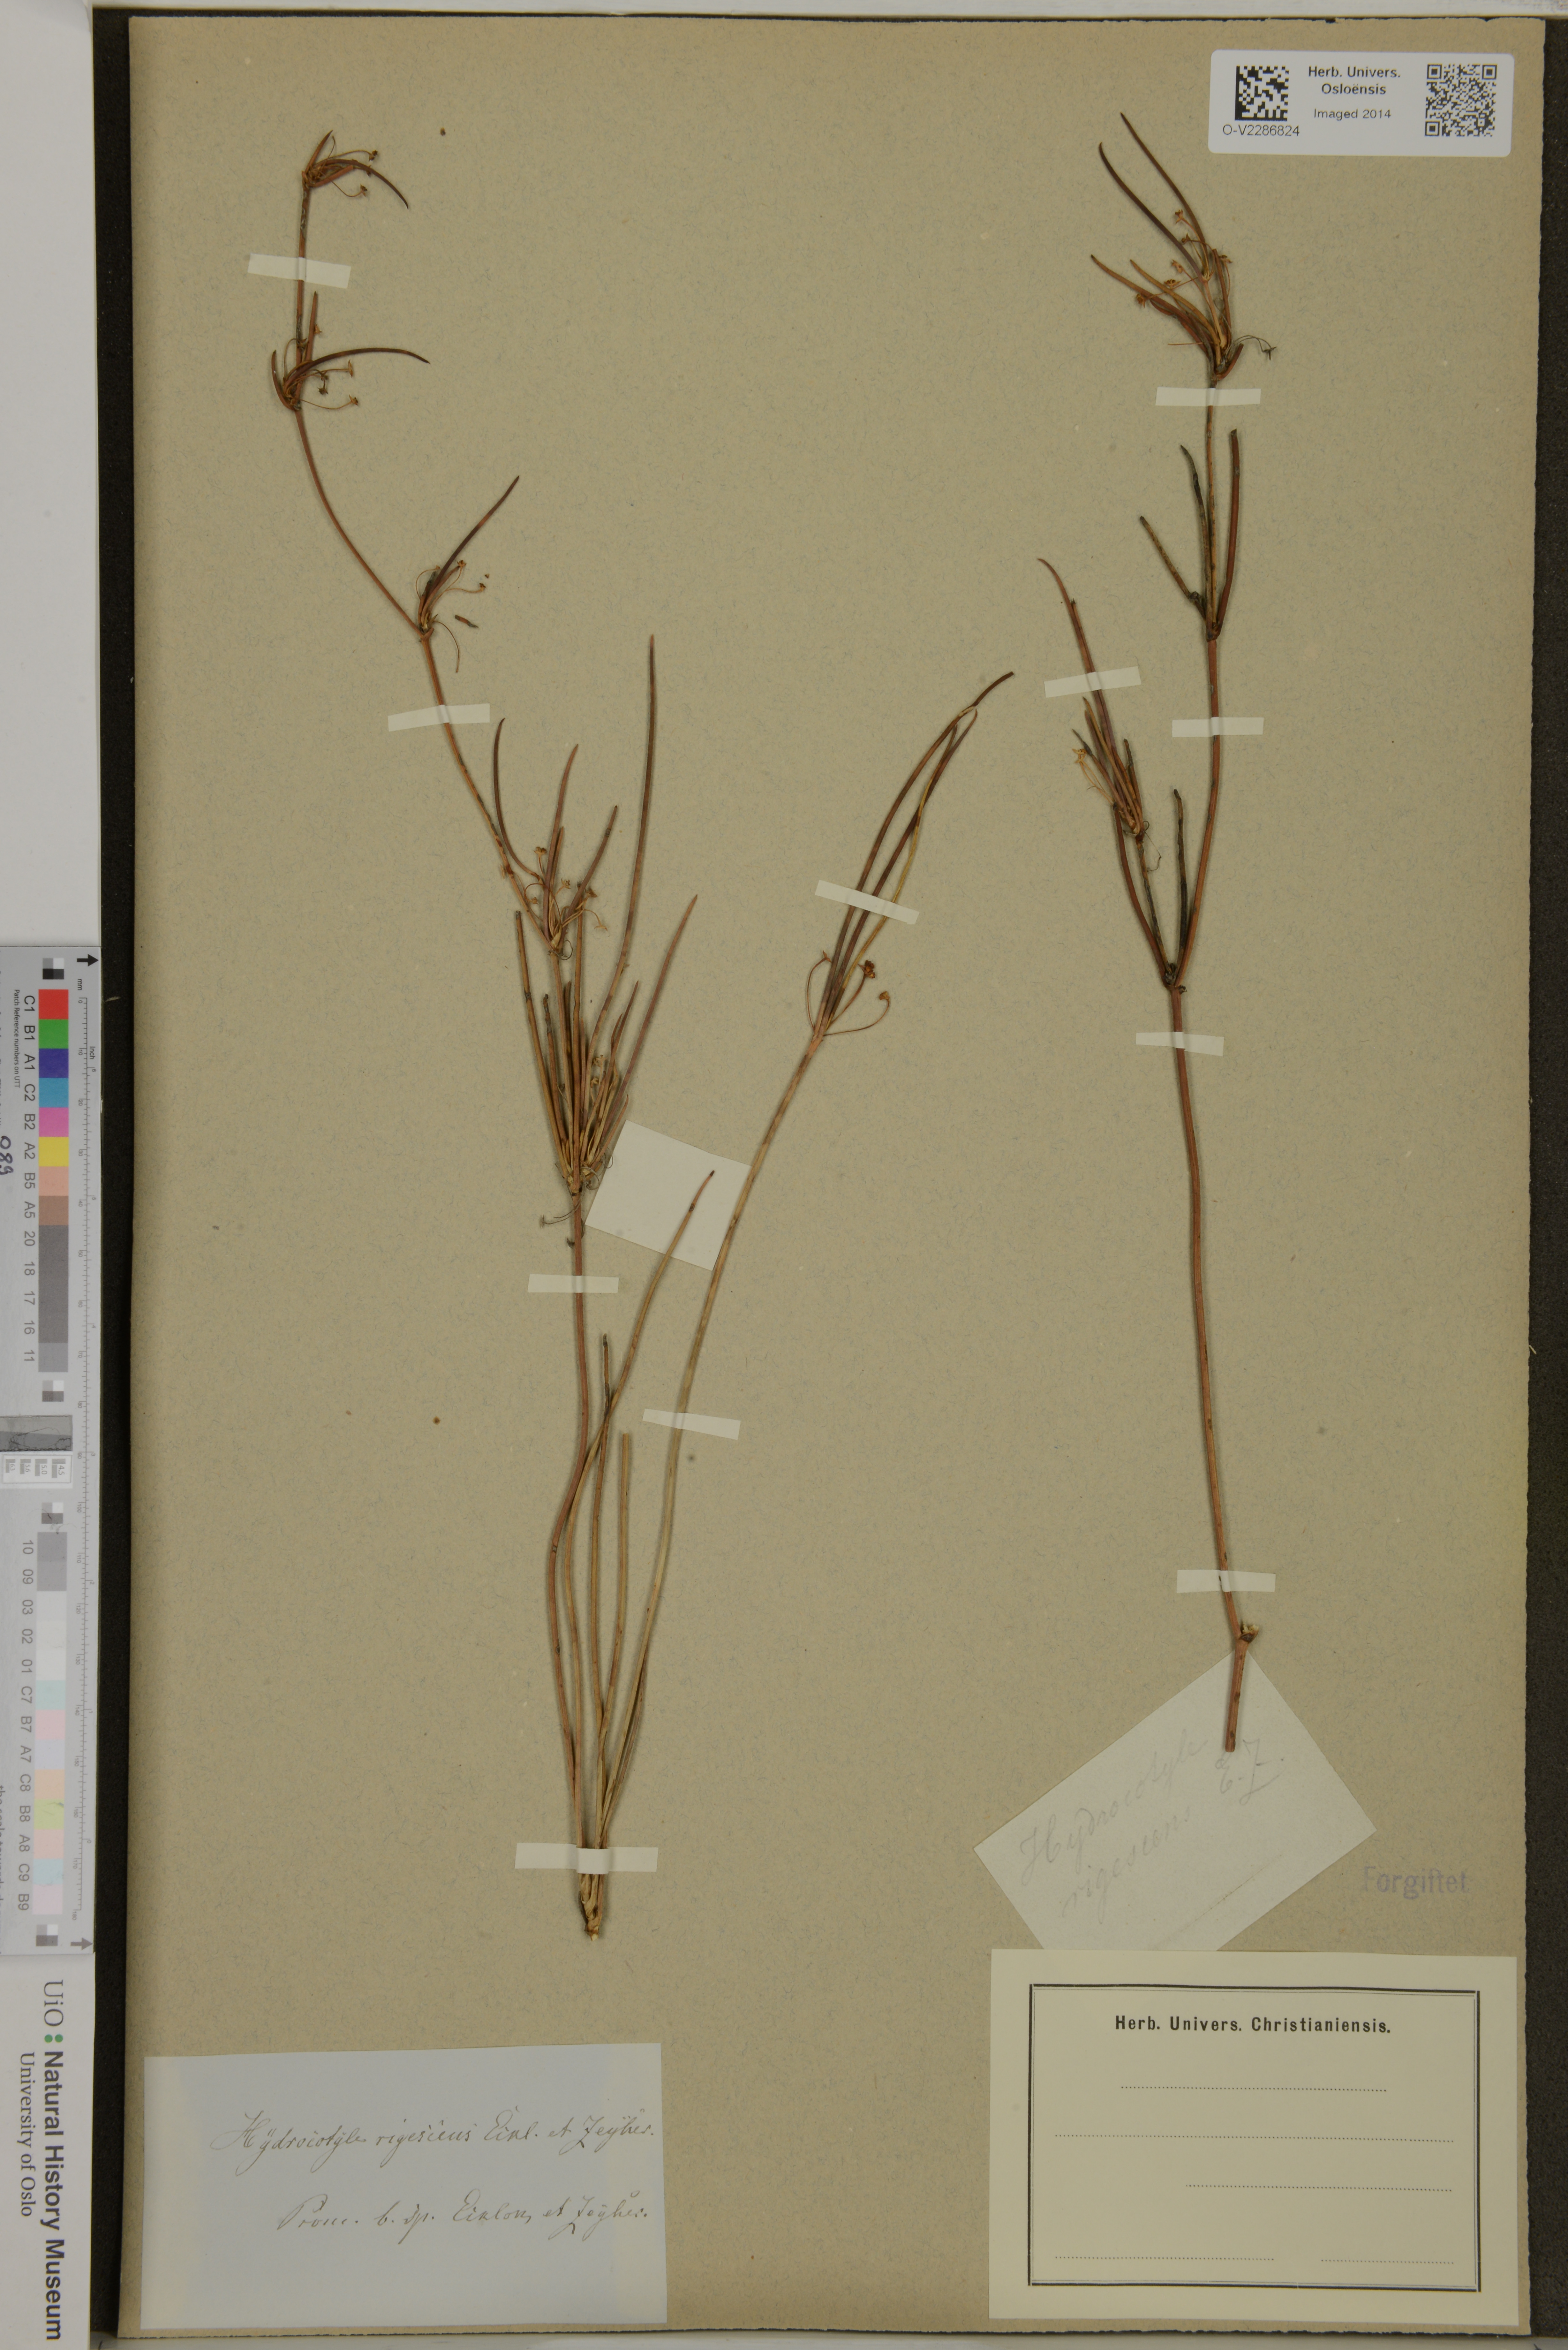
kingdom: Plantae
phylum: Tracheophyta
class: Magnoliopsida
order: Apiales
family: Araliaceae
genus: Trachymene
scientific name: Trachymene oleracea
